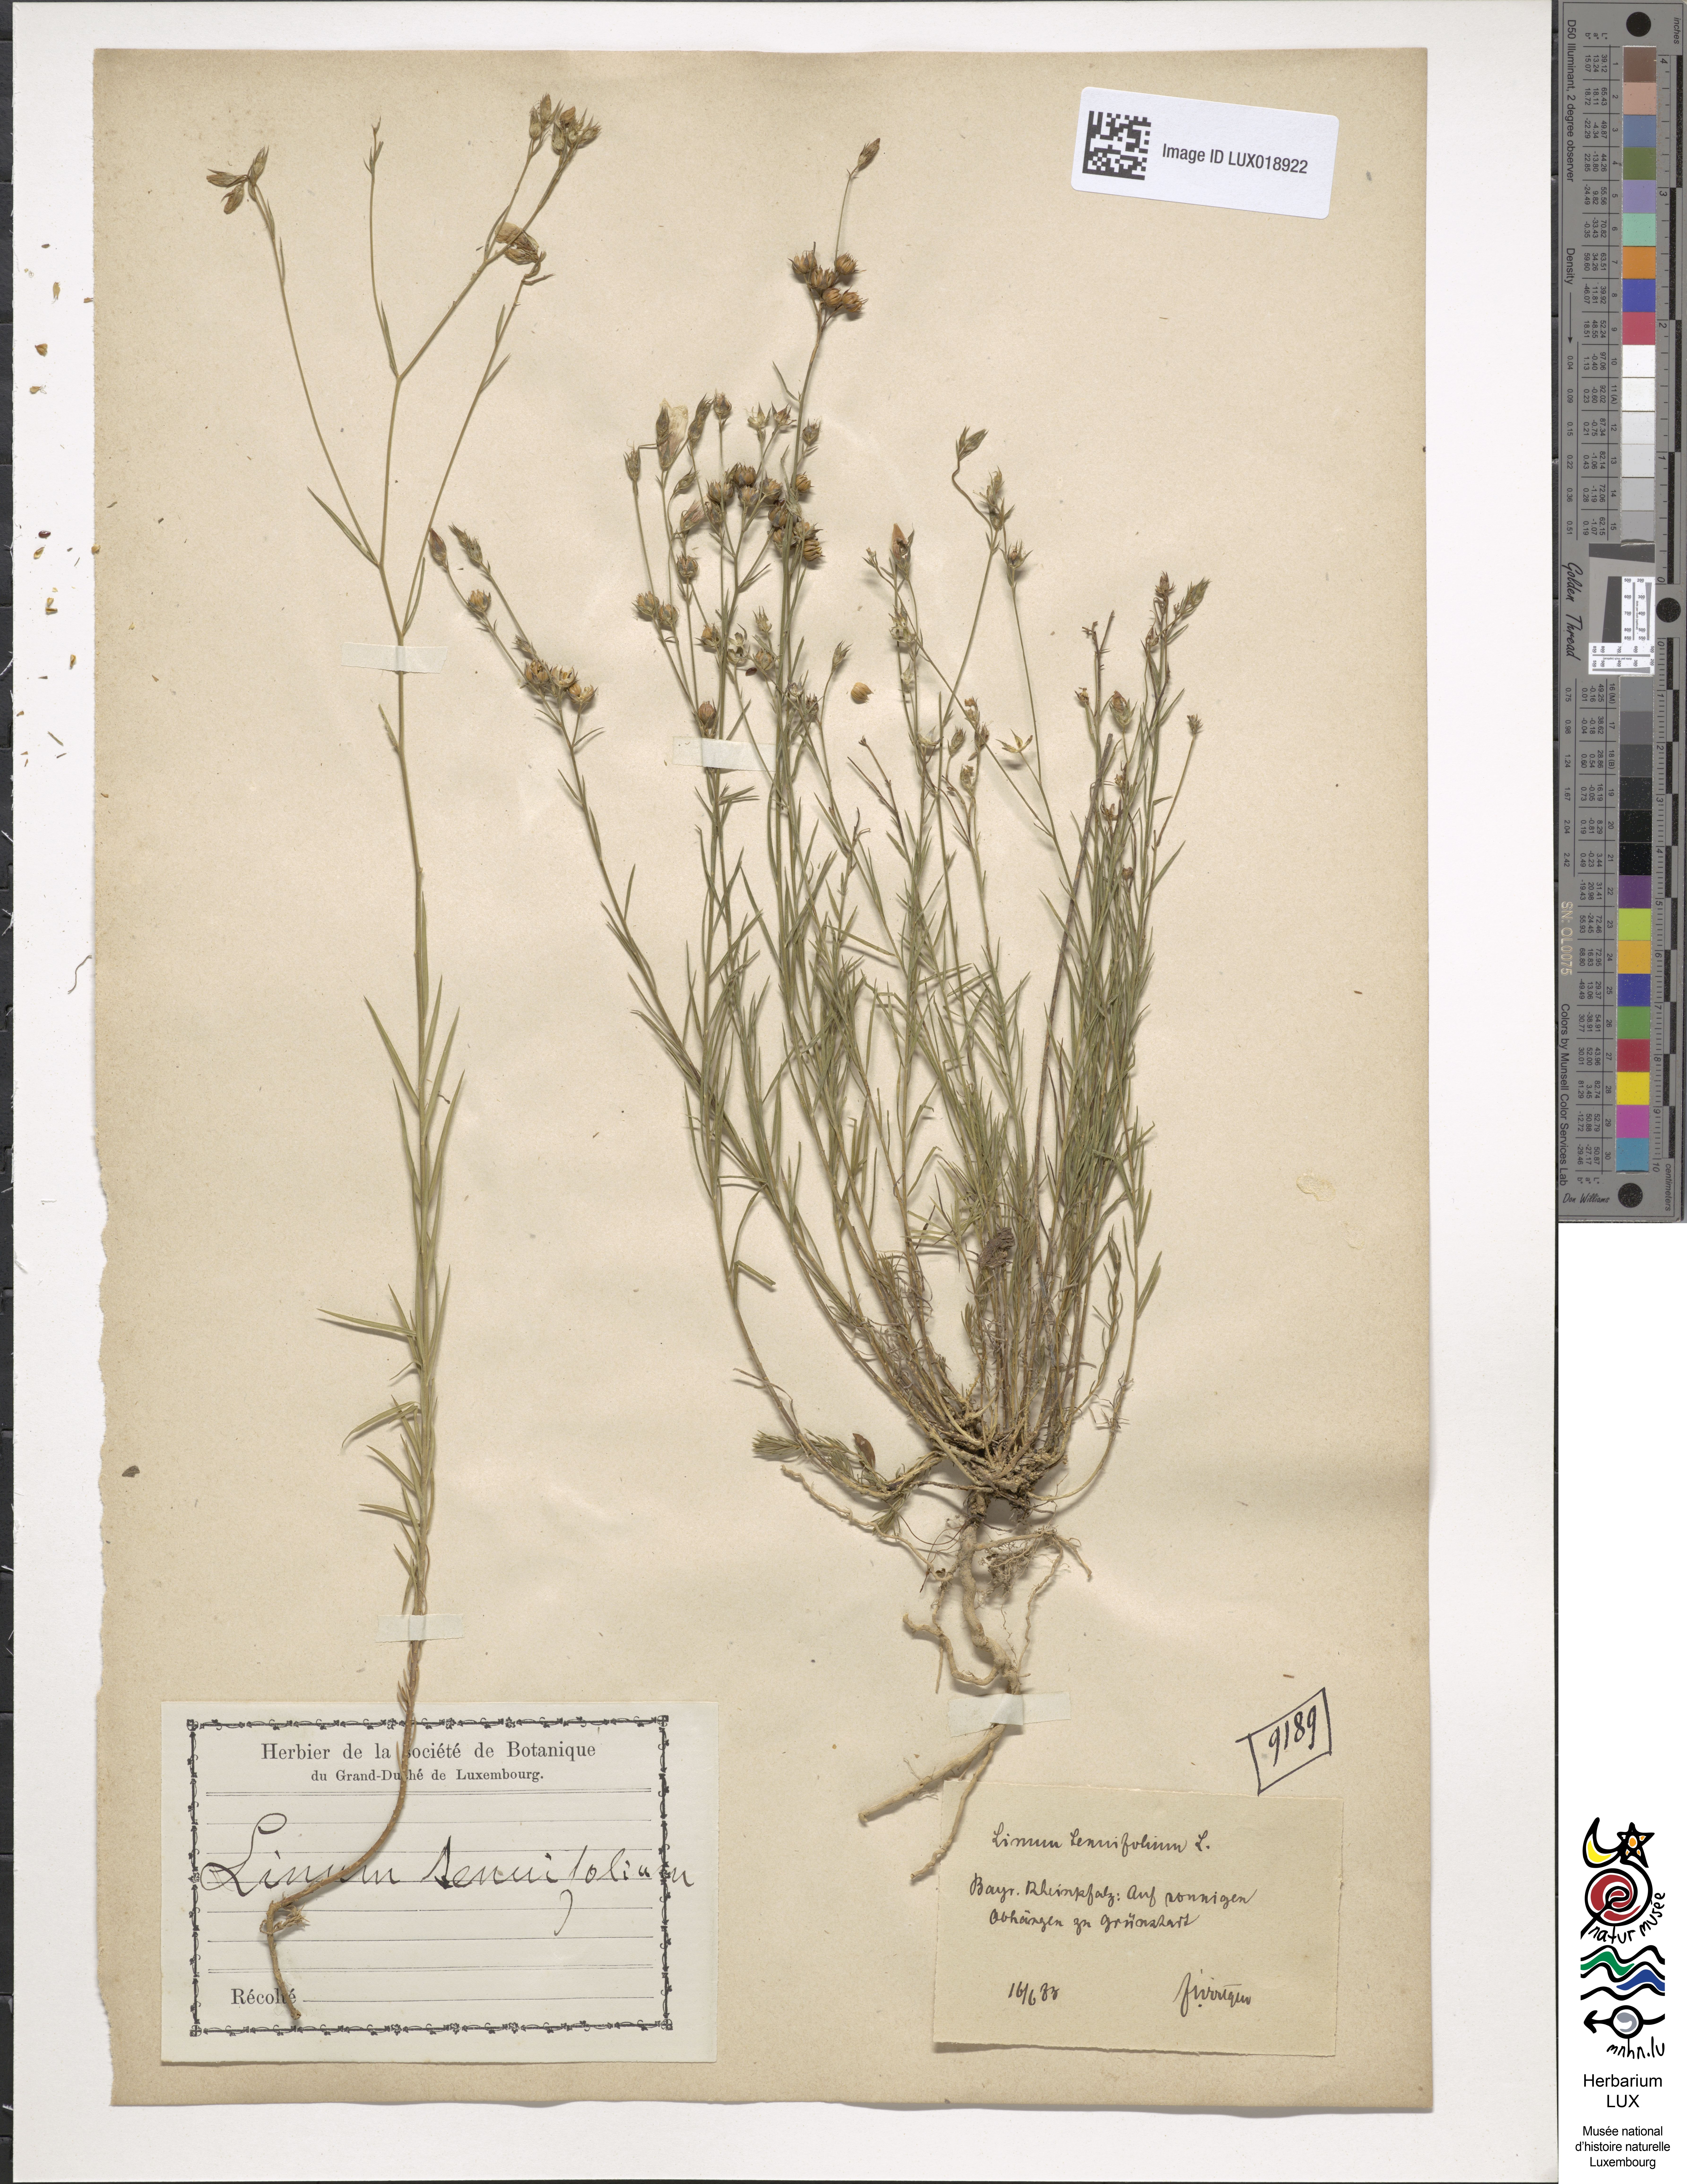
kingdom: Plantae
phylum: Tracheophyta
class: Magnoliopsida
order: Malpighiales
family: Linaceae
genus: Linum
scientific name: Linum tenuifolium
